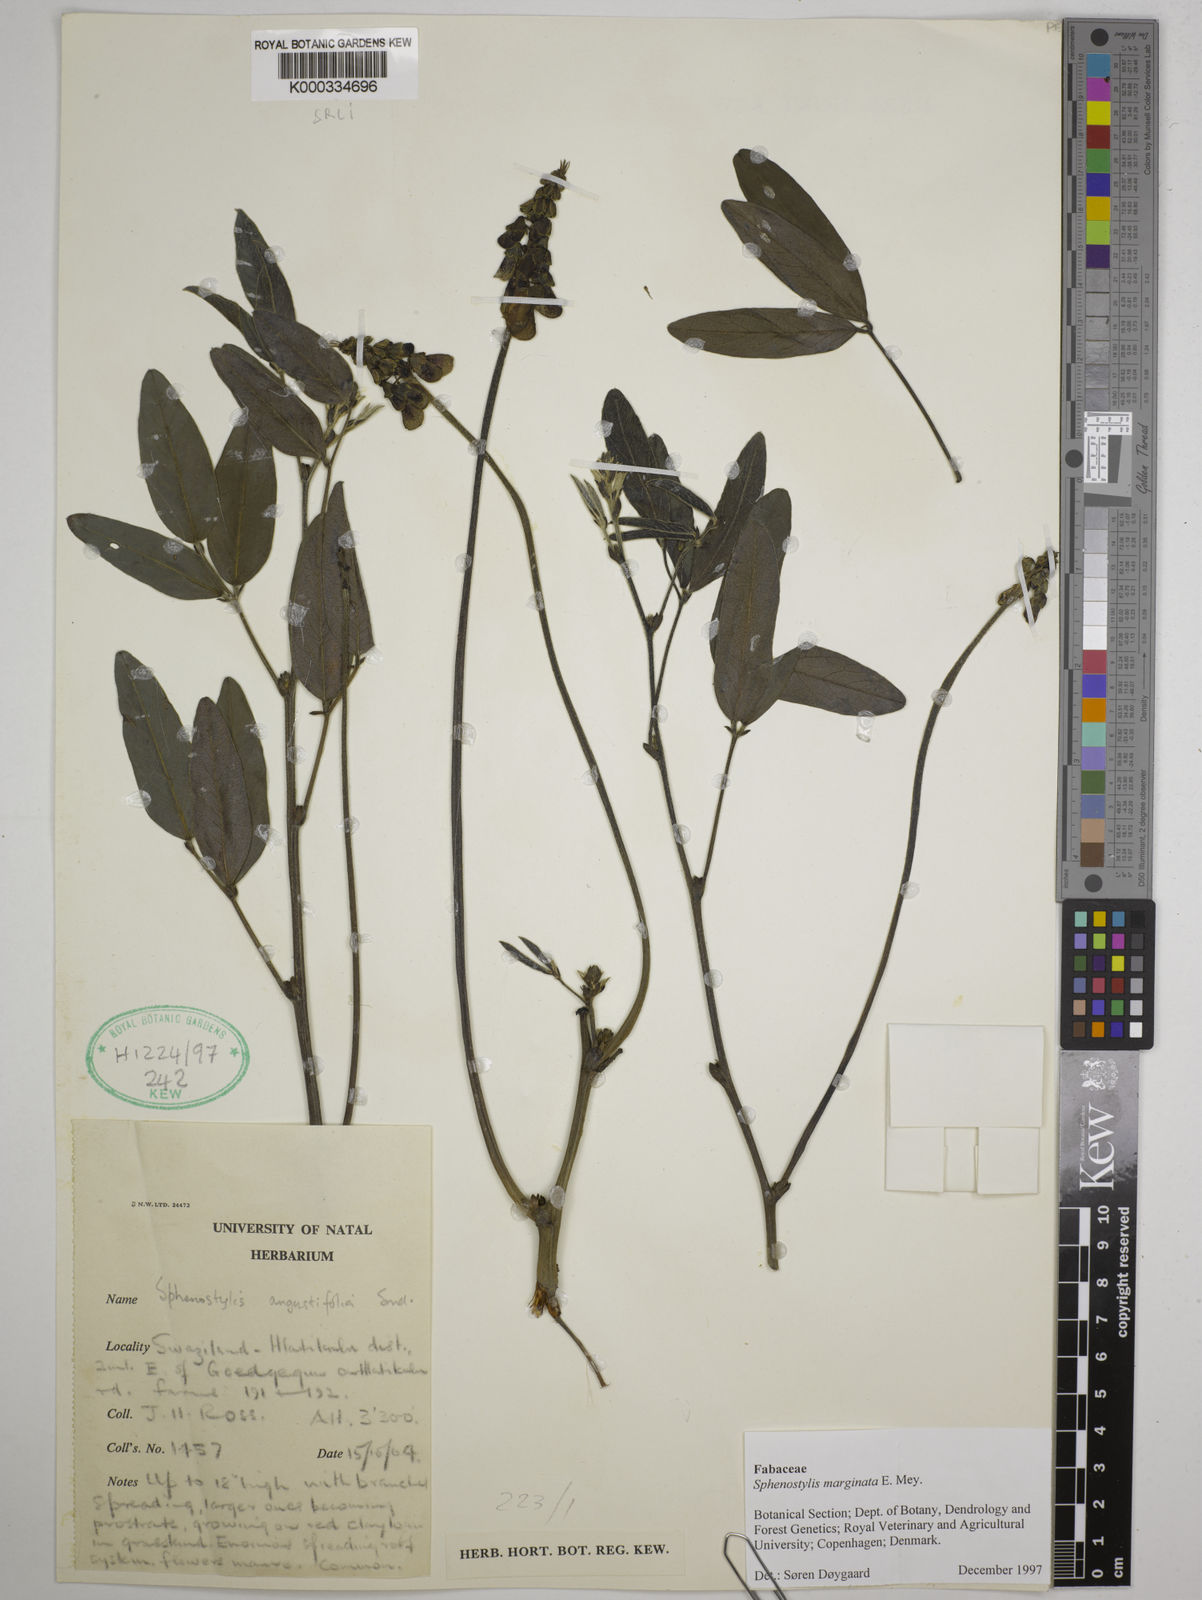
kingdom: Plantae
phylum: Tracheophyta
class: Magnoliopsida
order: Fabales
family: Fabaceae
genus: Sphenostylis
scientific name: Sphenostylis marginata
